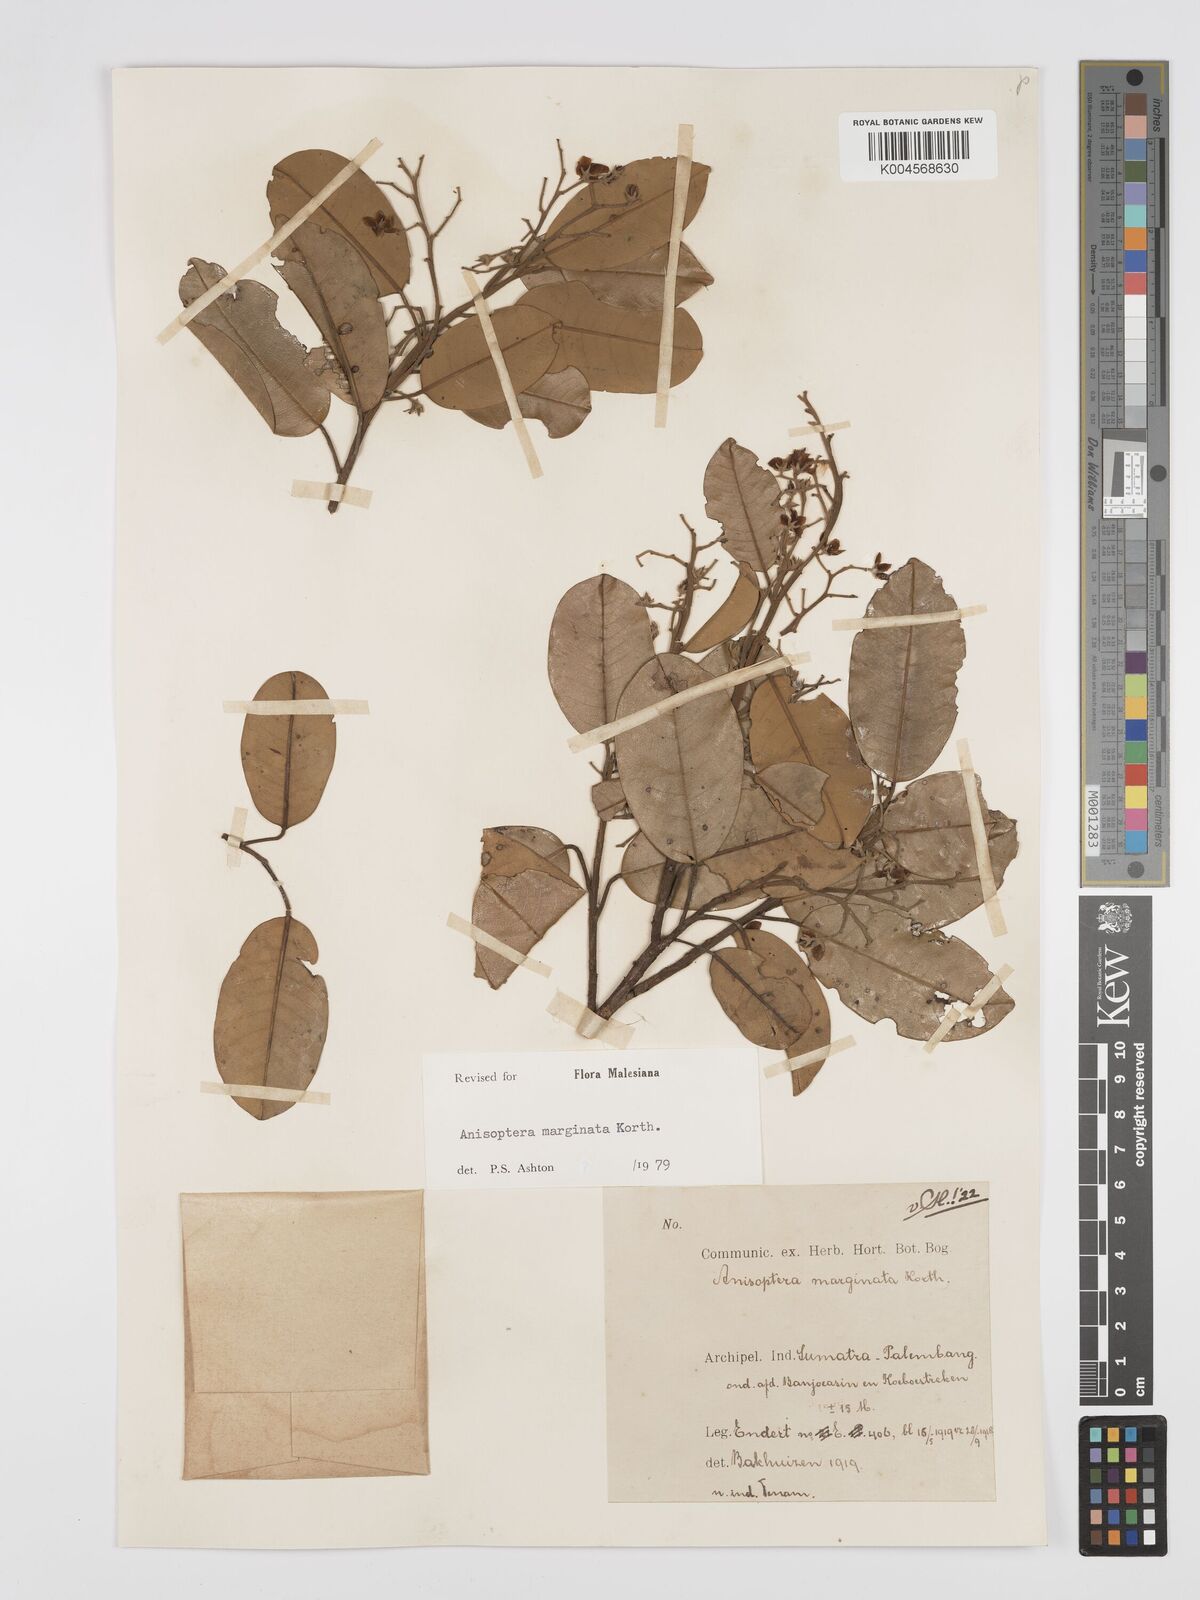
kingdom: Plantae
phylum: Tracheophyta
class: Magnoliopsida
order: Malvales
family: Dipterocarpaceae
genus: Anisoptera
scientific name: Anisoptera marginata
